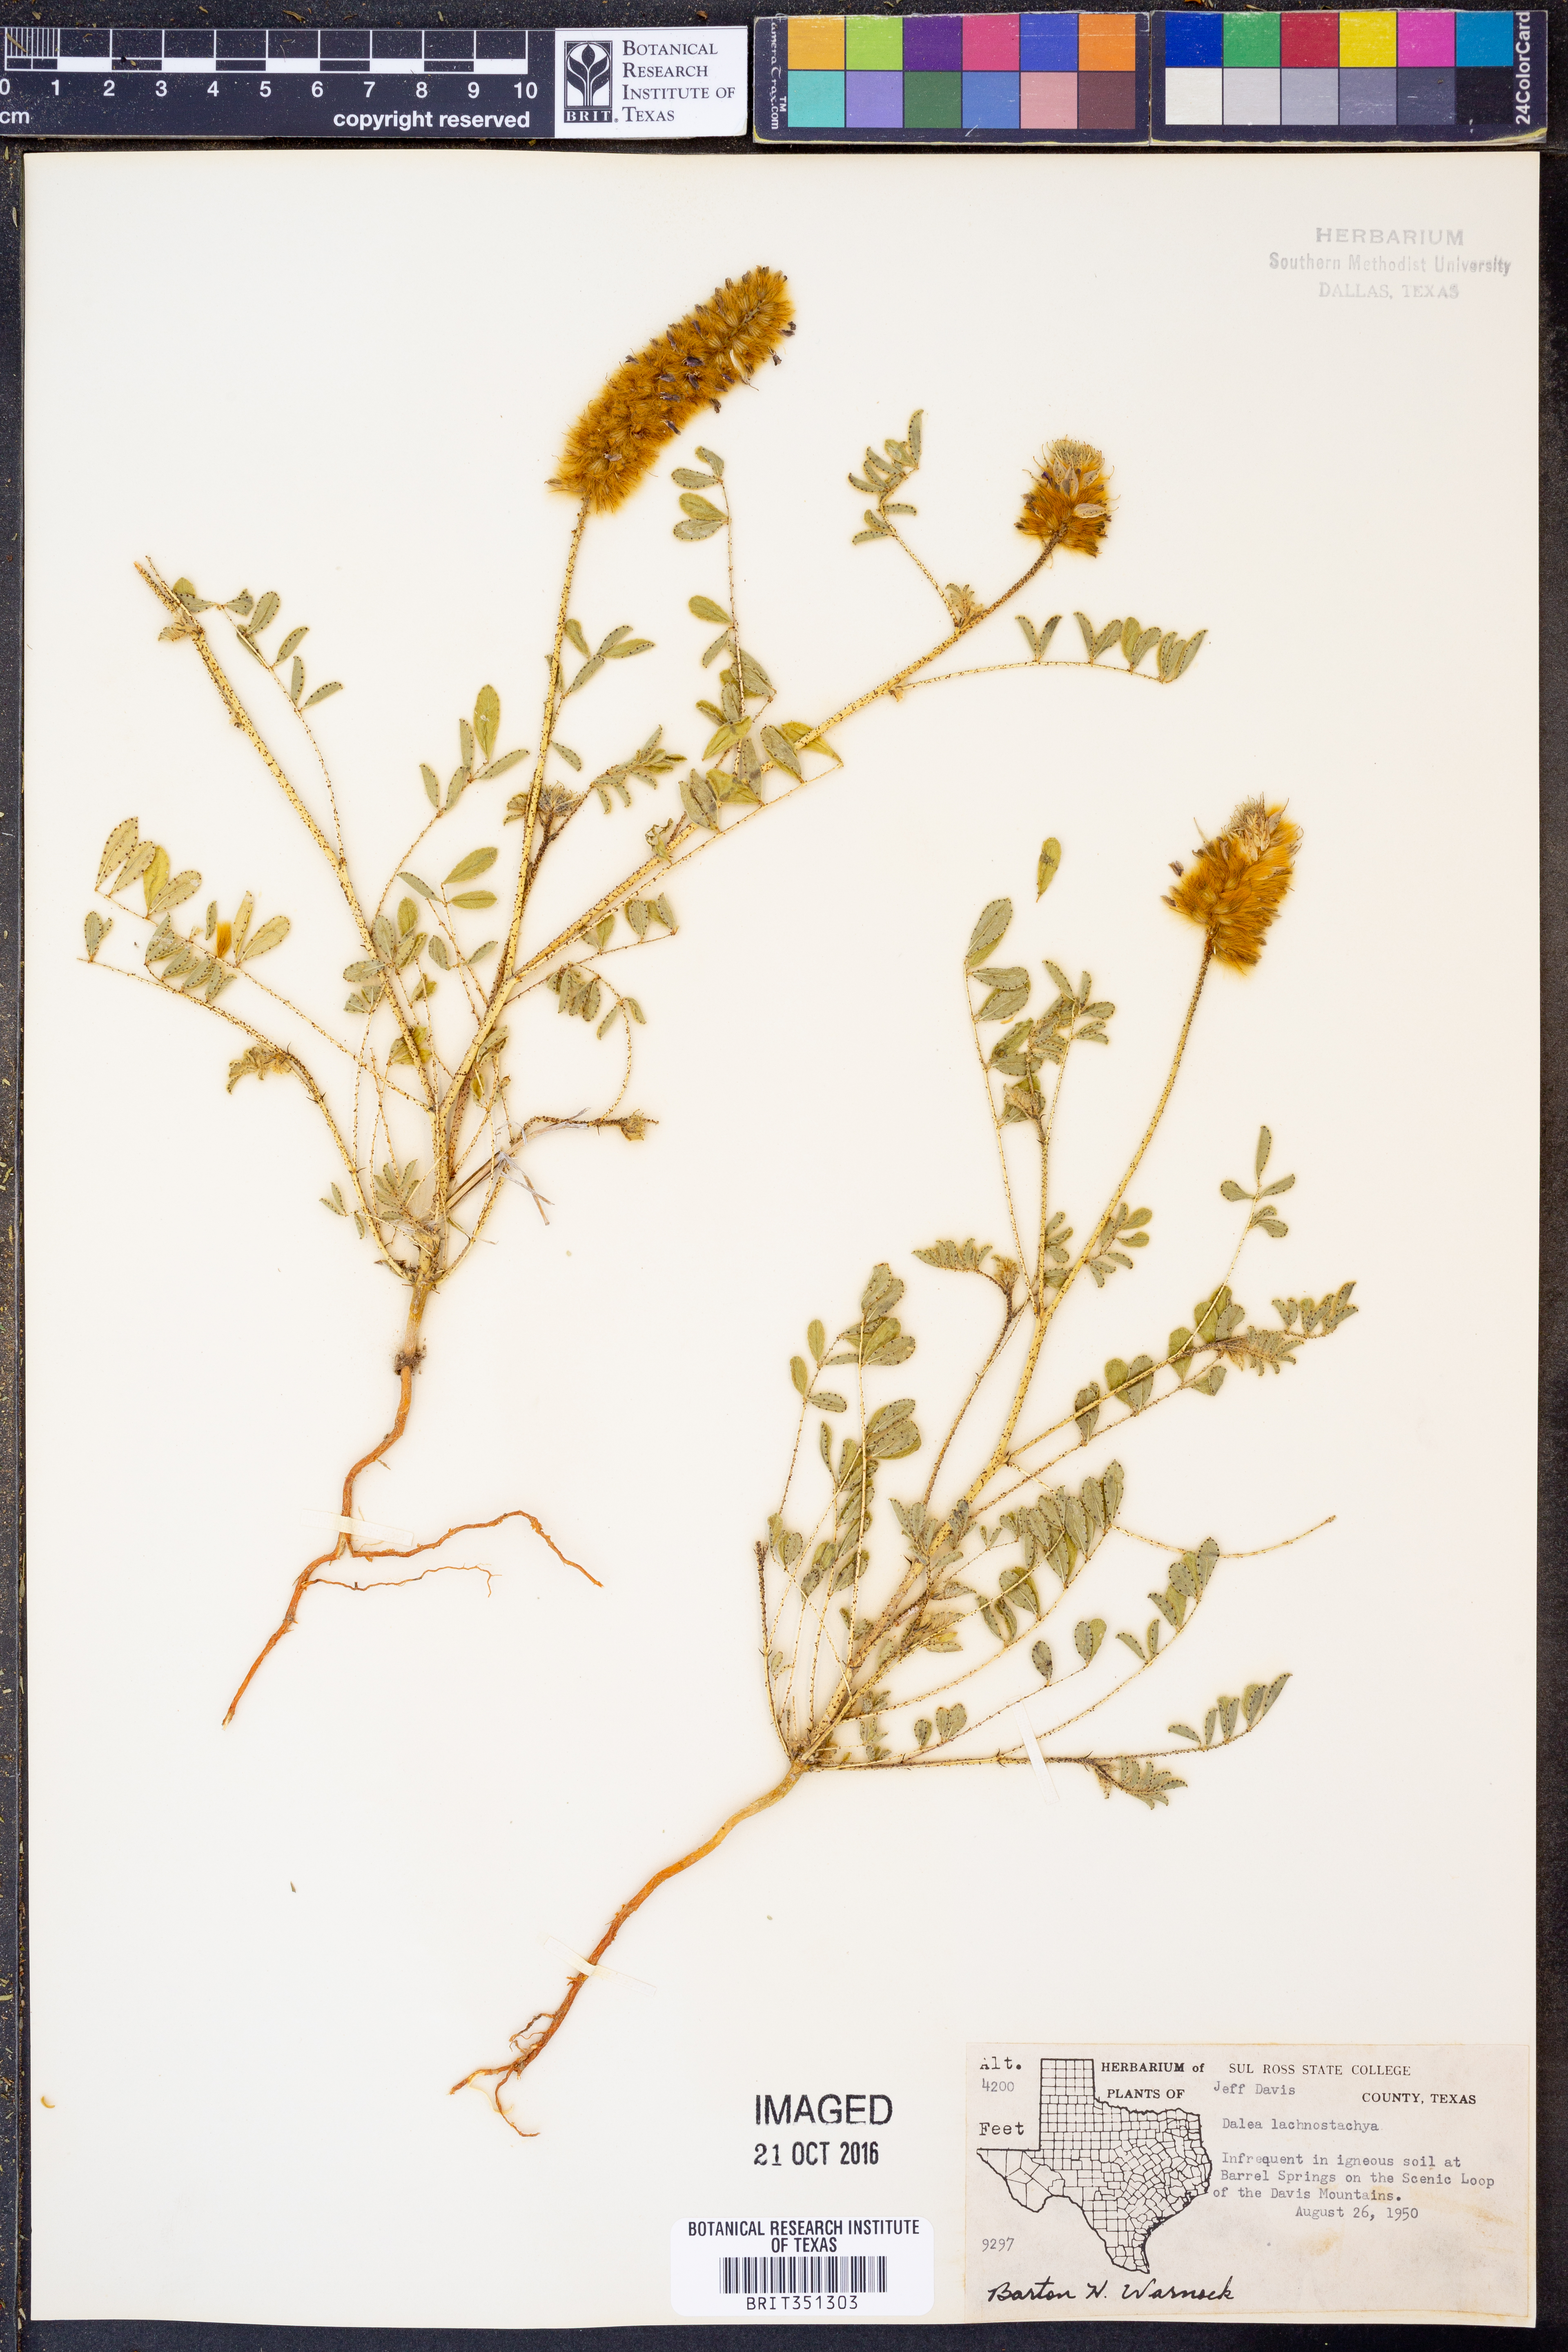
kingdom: Plantae
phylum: Tracheophyta
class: Magnoliopsida
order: Fabales
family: Fabaceae
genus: Dalea
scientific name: Dalea lachnostachys
